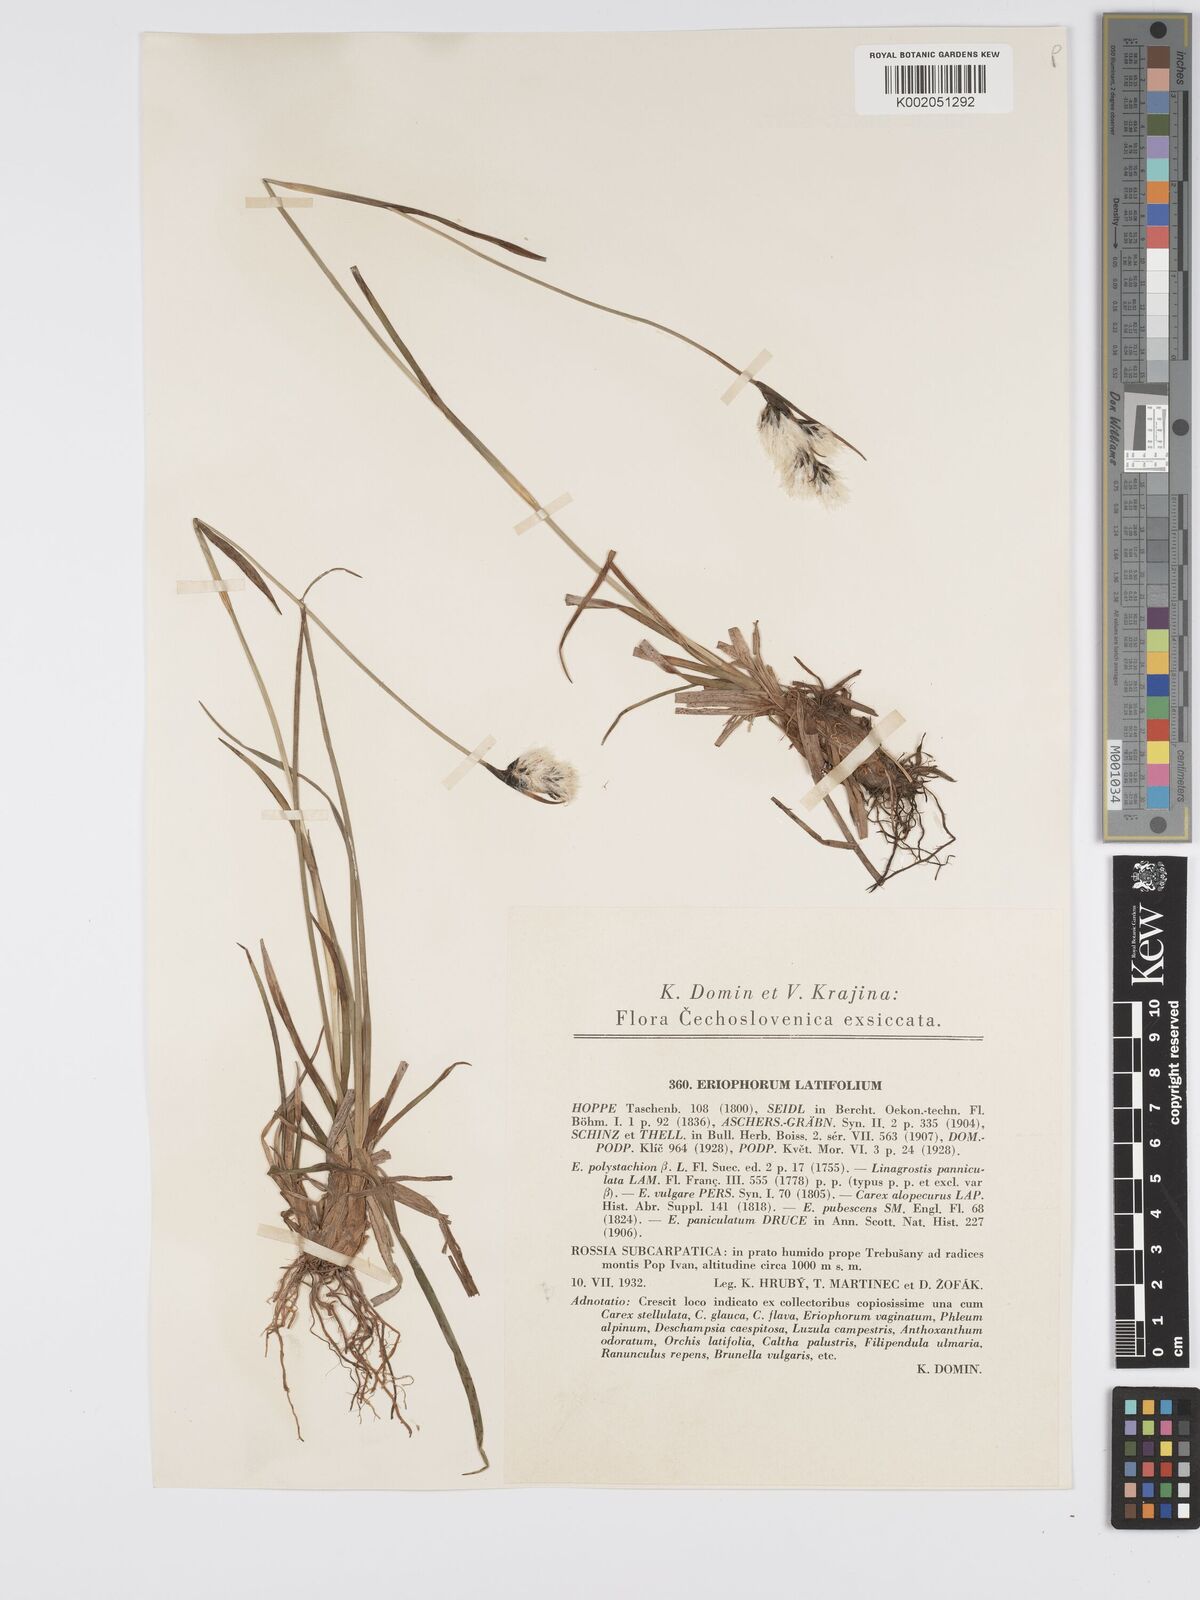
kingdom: Plantae
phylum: Tracheophyta
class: Liliopsida
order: Poales
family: Cyperaceae
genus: Eriophorum
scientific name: Eriophorum latifolium
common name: Broad-leaved cottongrass
